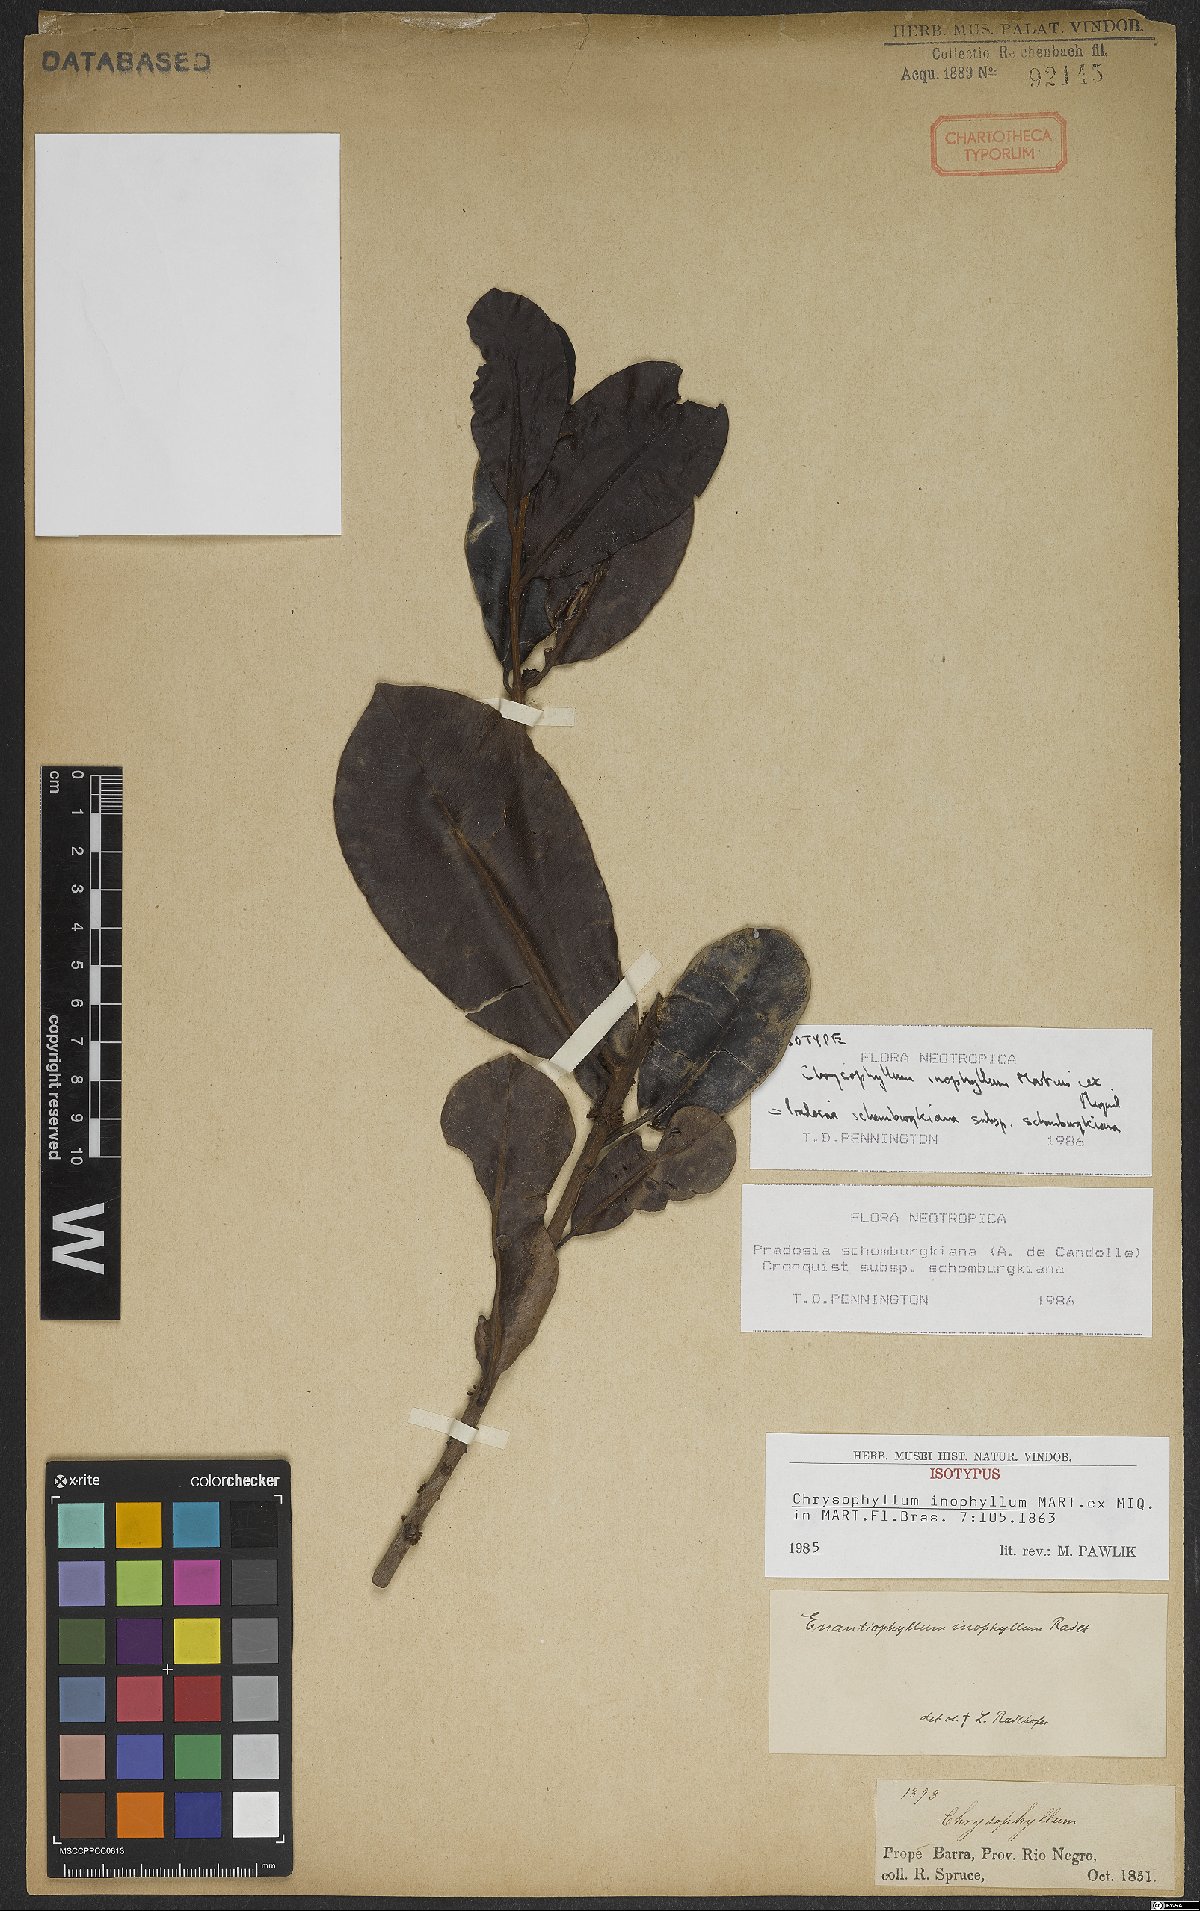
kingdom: Plantae
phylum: Tracheophyta
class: Magnoliopsida
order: Ericales
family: Sapotaceae
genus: Pradosia
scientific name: Pradosia schomburgkiana
